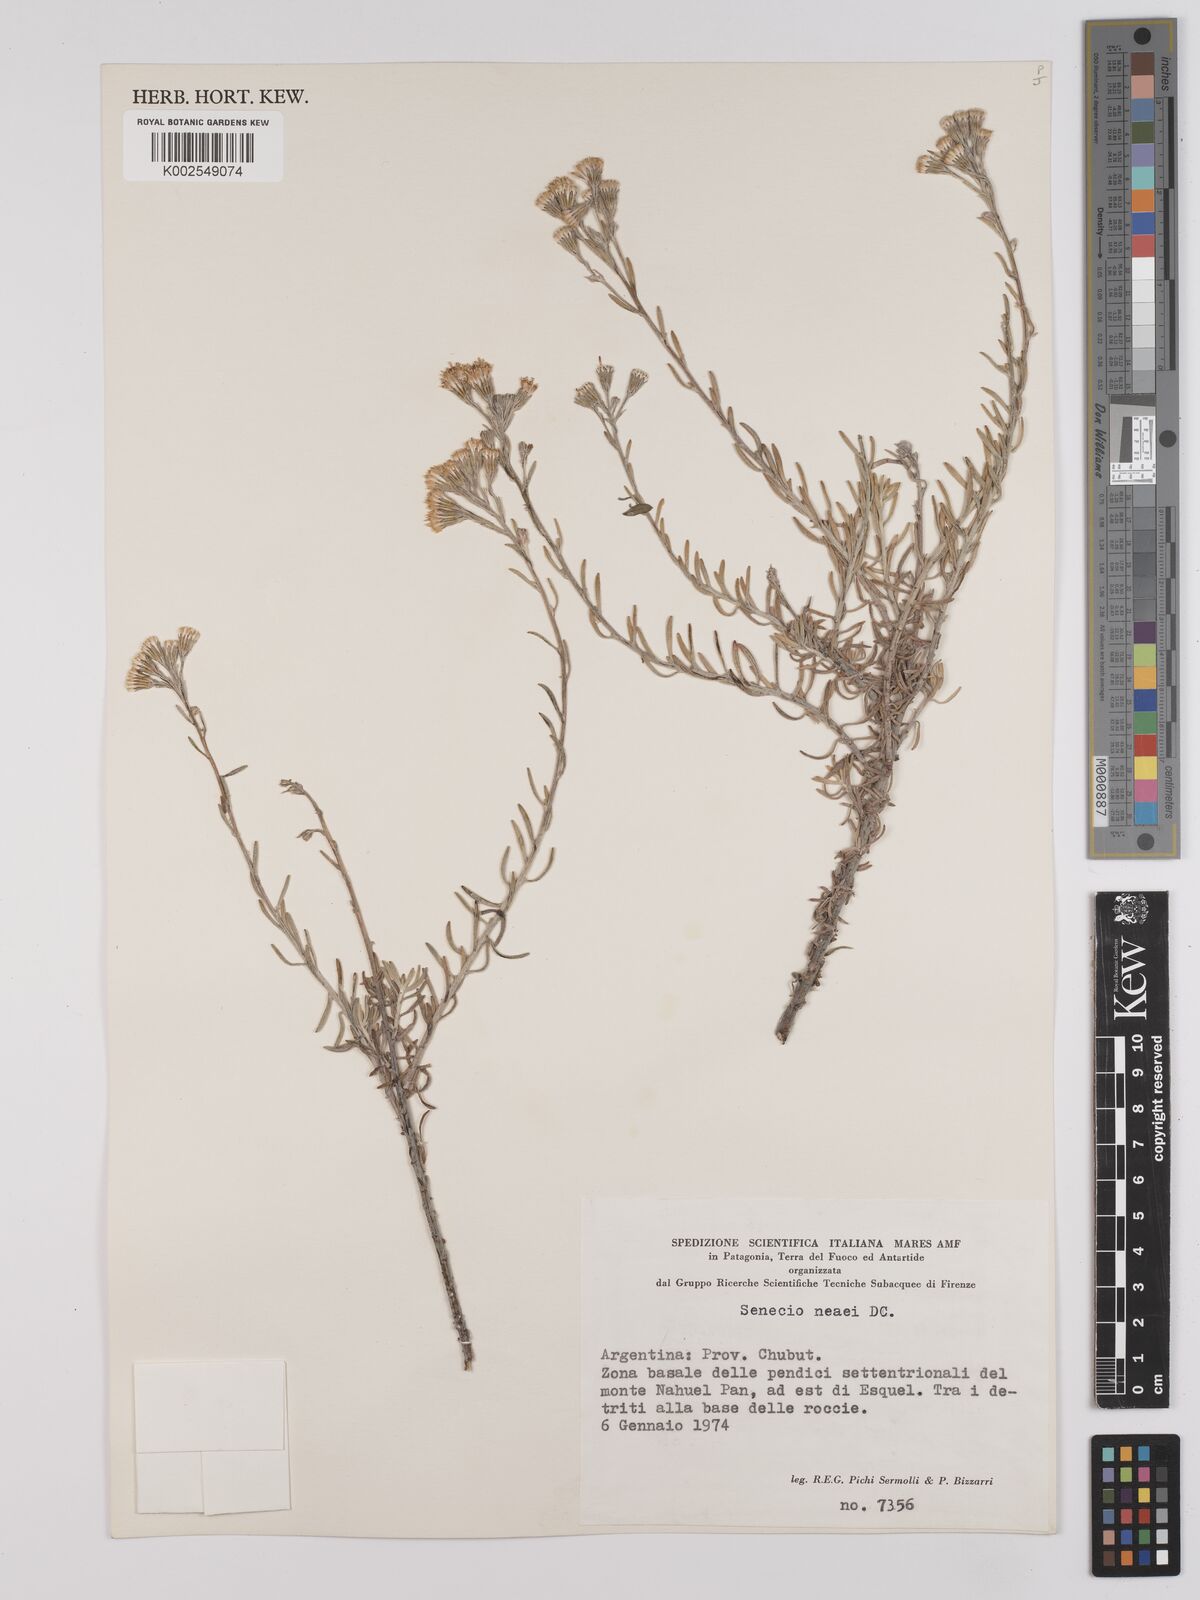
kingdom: Plantae
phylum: Tracheophyta
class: Magnoliopsida
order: Asterales
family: Asteraceae
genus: Senecio
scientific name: Senecio neaei
